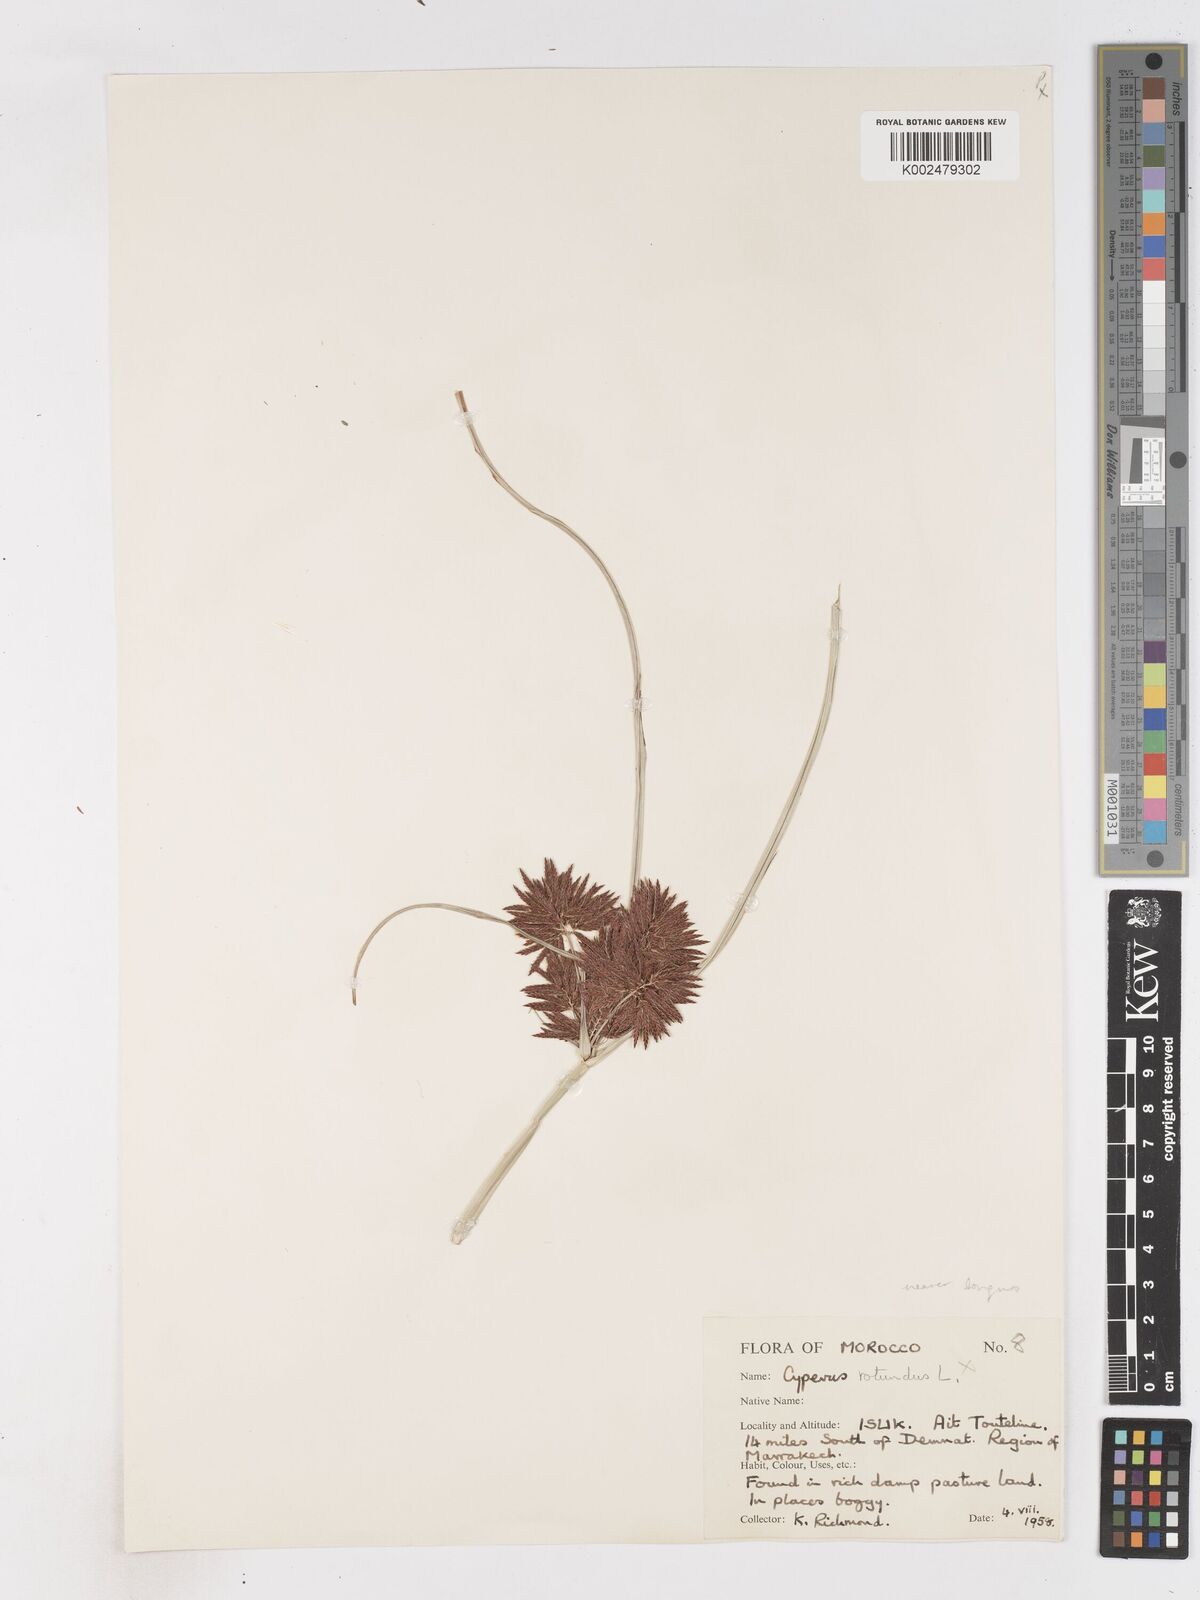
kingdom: Plantae
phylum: Tracheophyta
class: Liliopsida
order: Poales
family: Cyperaceae
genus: Cyperus
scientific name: Cyperus longus
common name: Galingale
